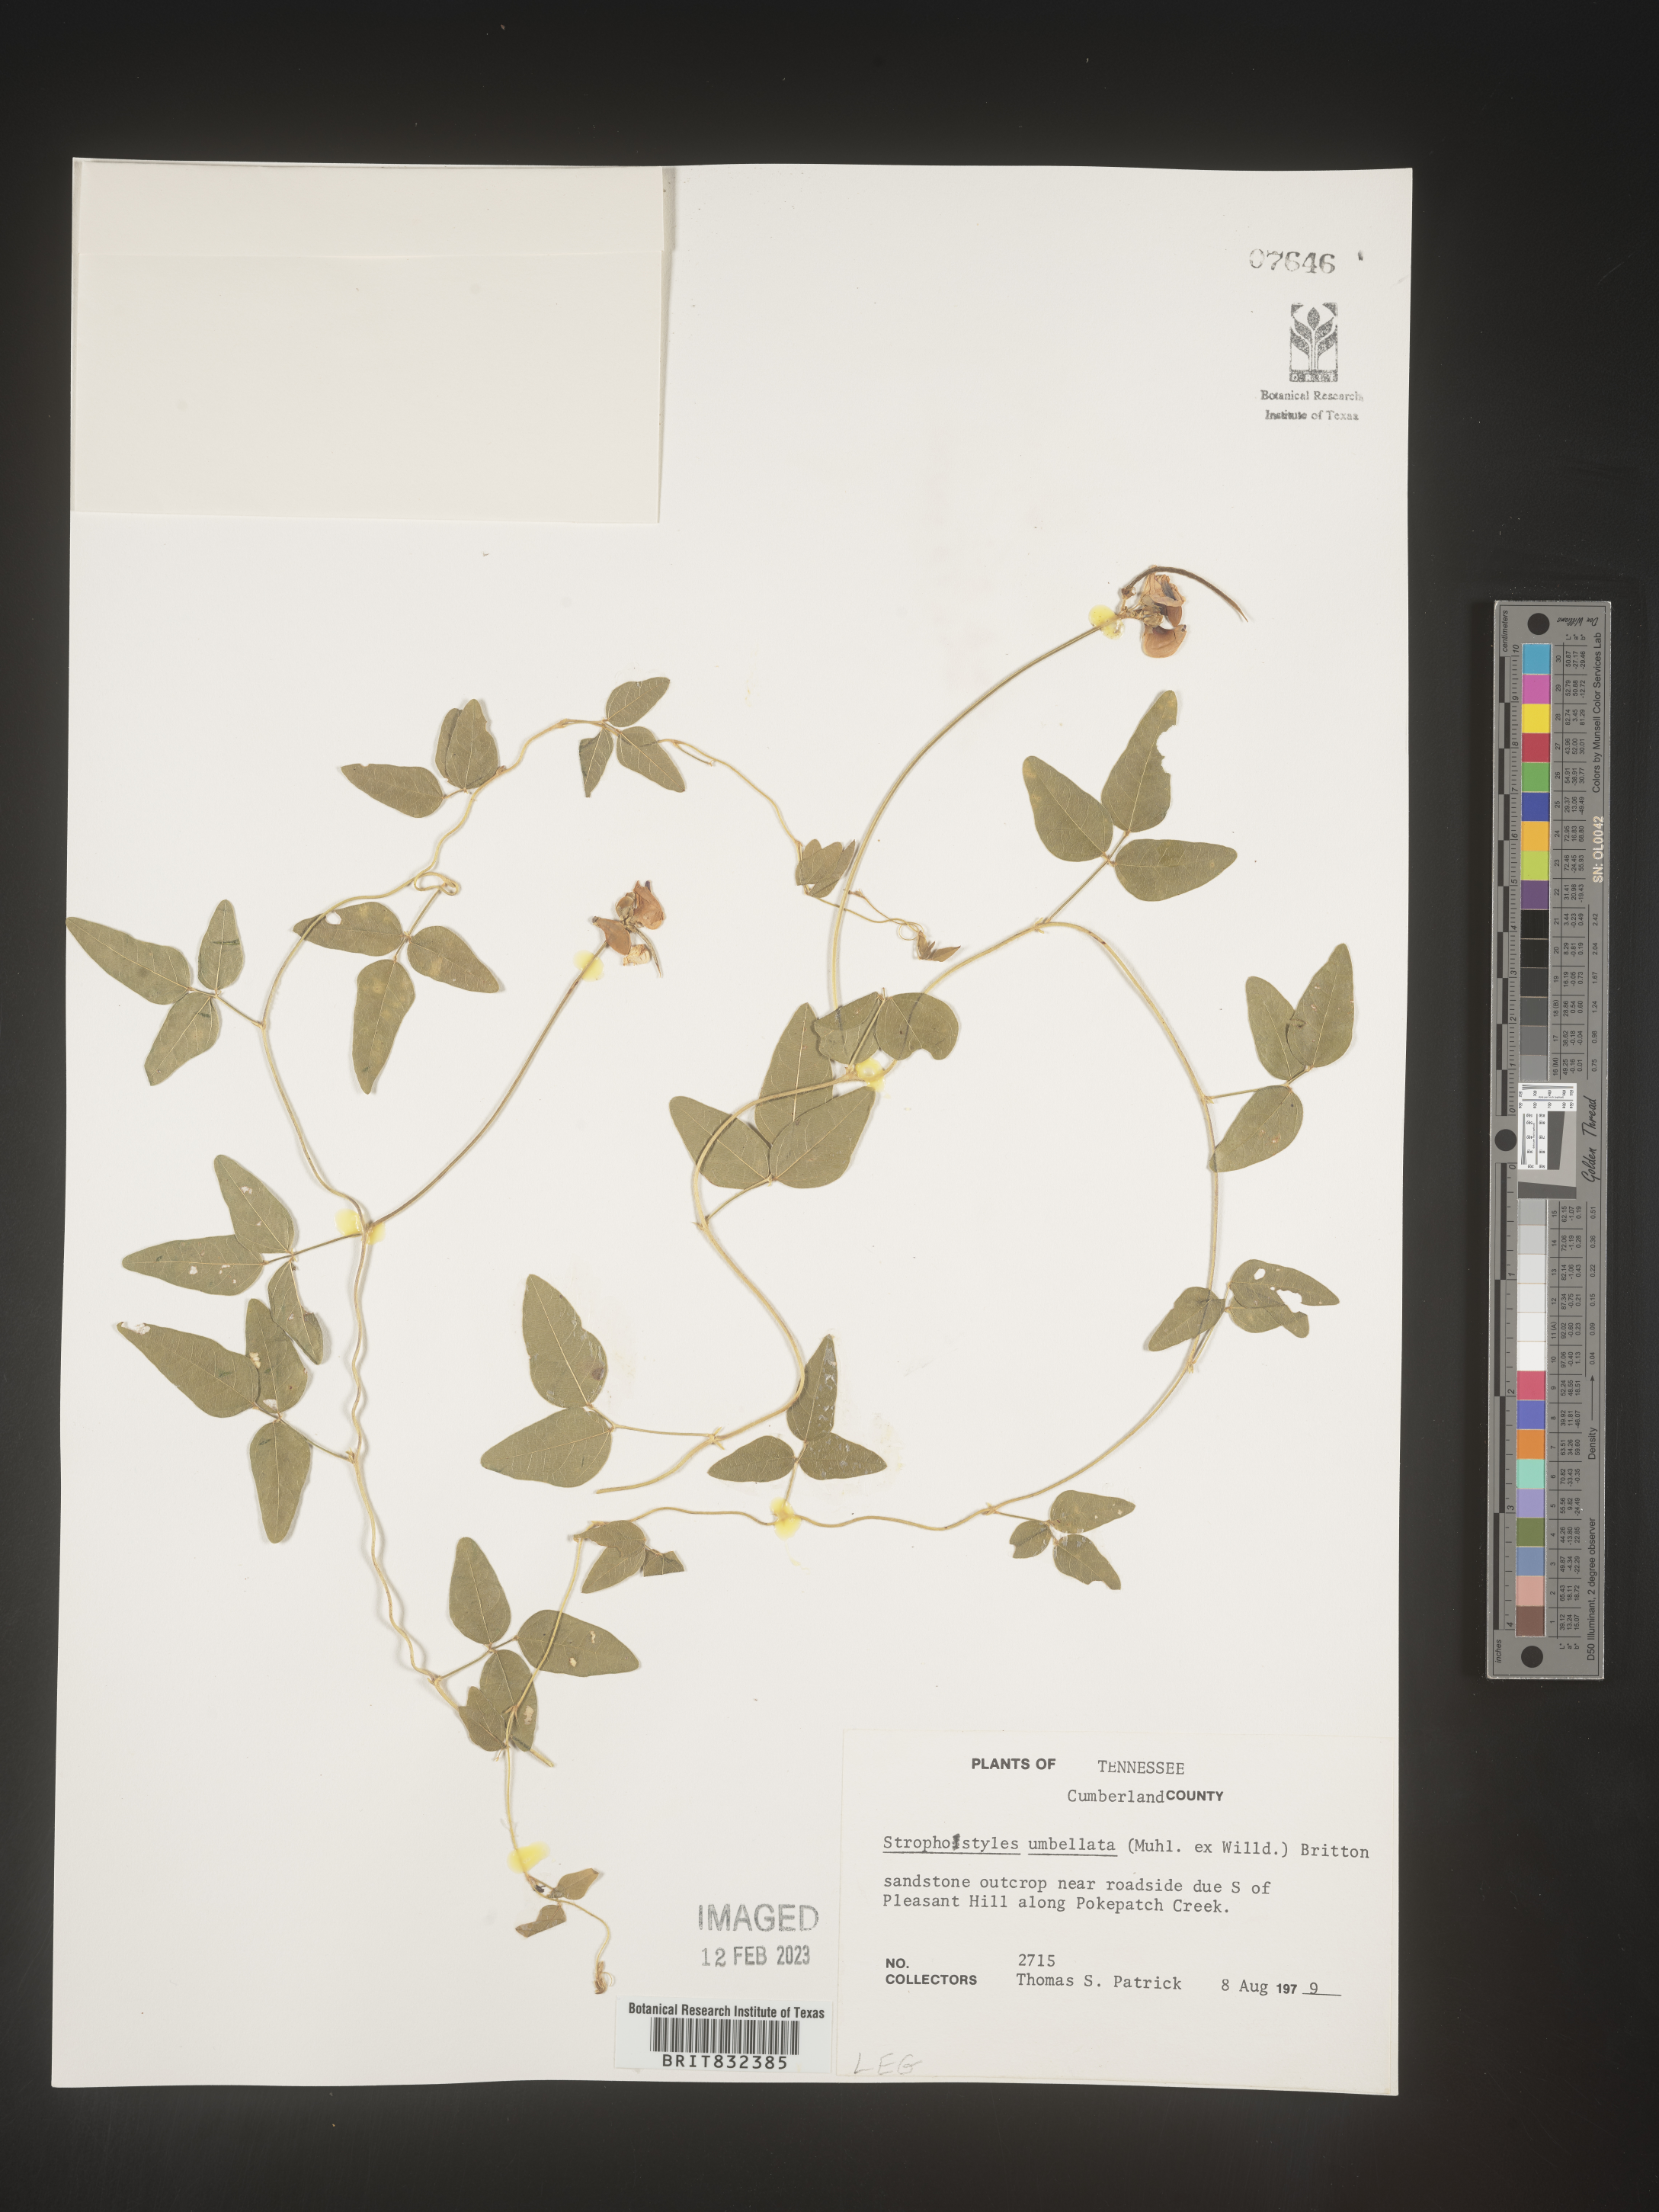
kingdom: Plantae
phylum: Tracheophyta
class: Magnoliopsida
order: Fabales
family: Fabaceae
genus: Strophostyles
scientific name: Strophostyles umbellata
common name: Perennial wild bean
